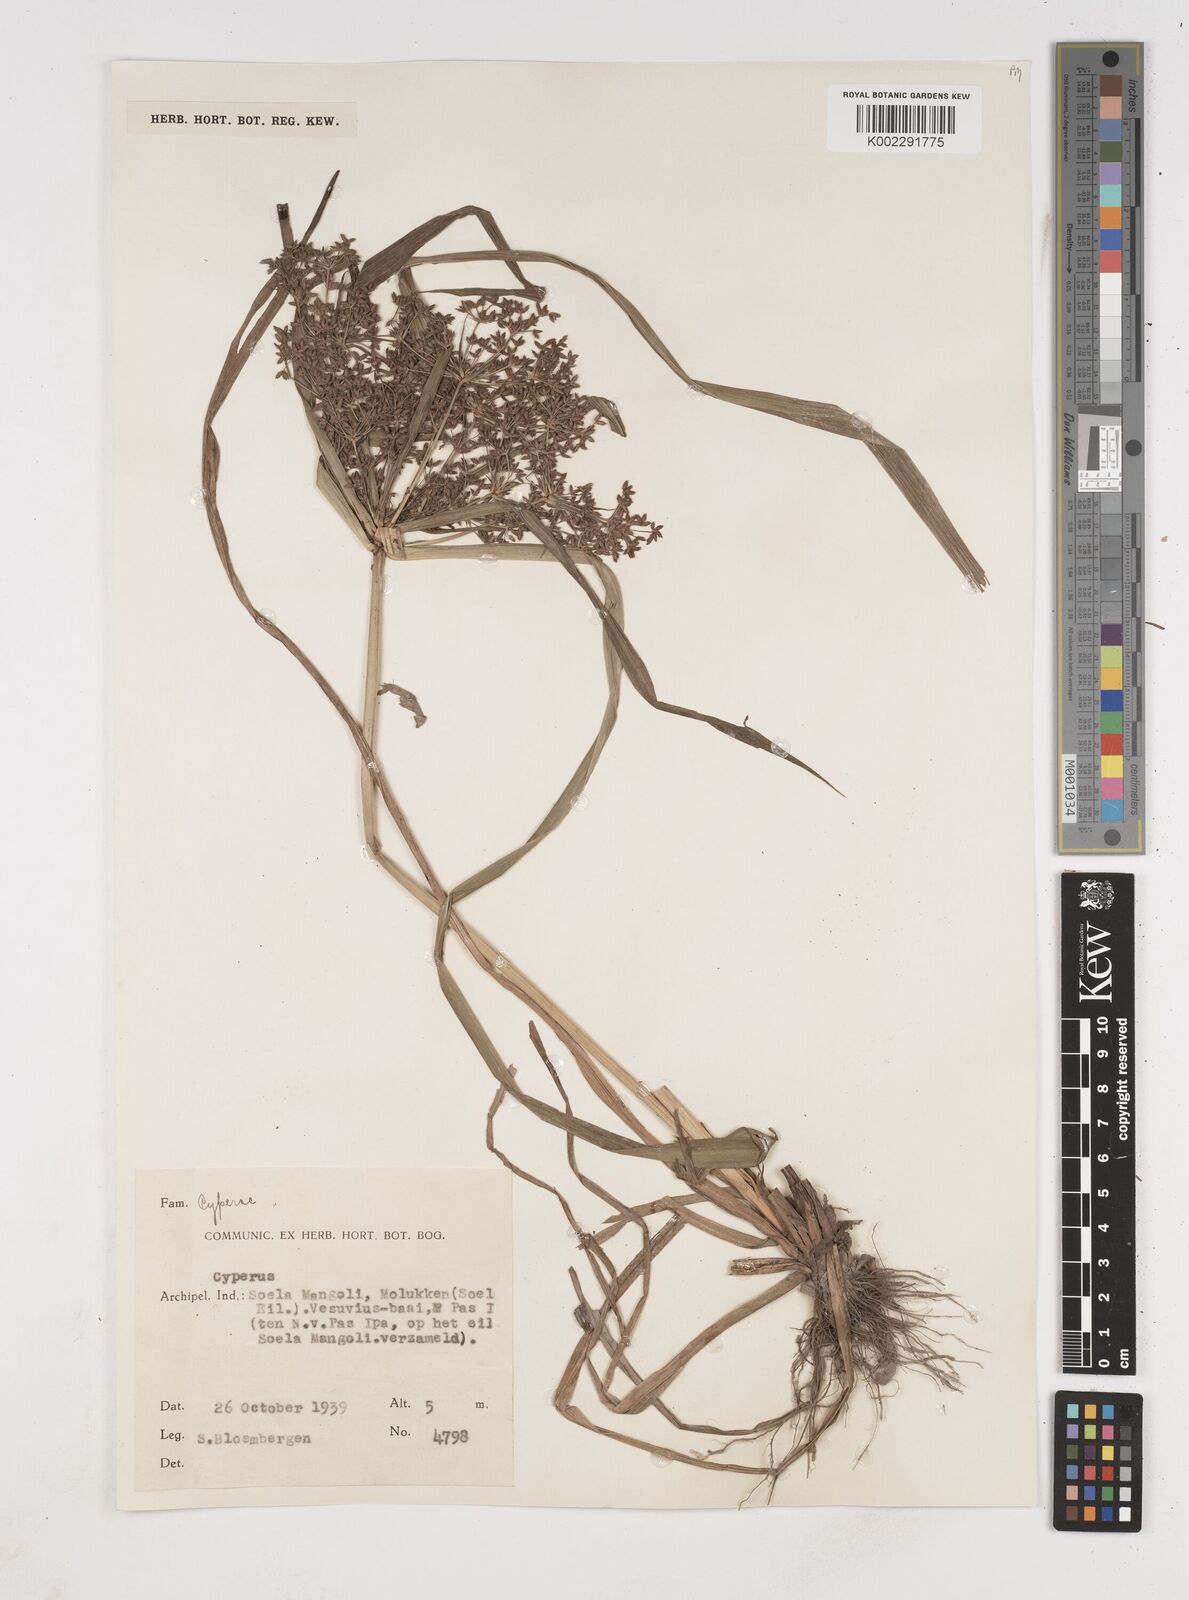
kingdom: Plantae
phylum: Tracheophyta
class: Liliopsida
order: Poales
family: Cyperaceae
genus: Cyperus
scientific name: Cyperus trialatus
